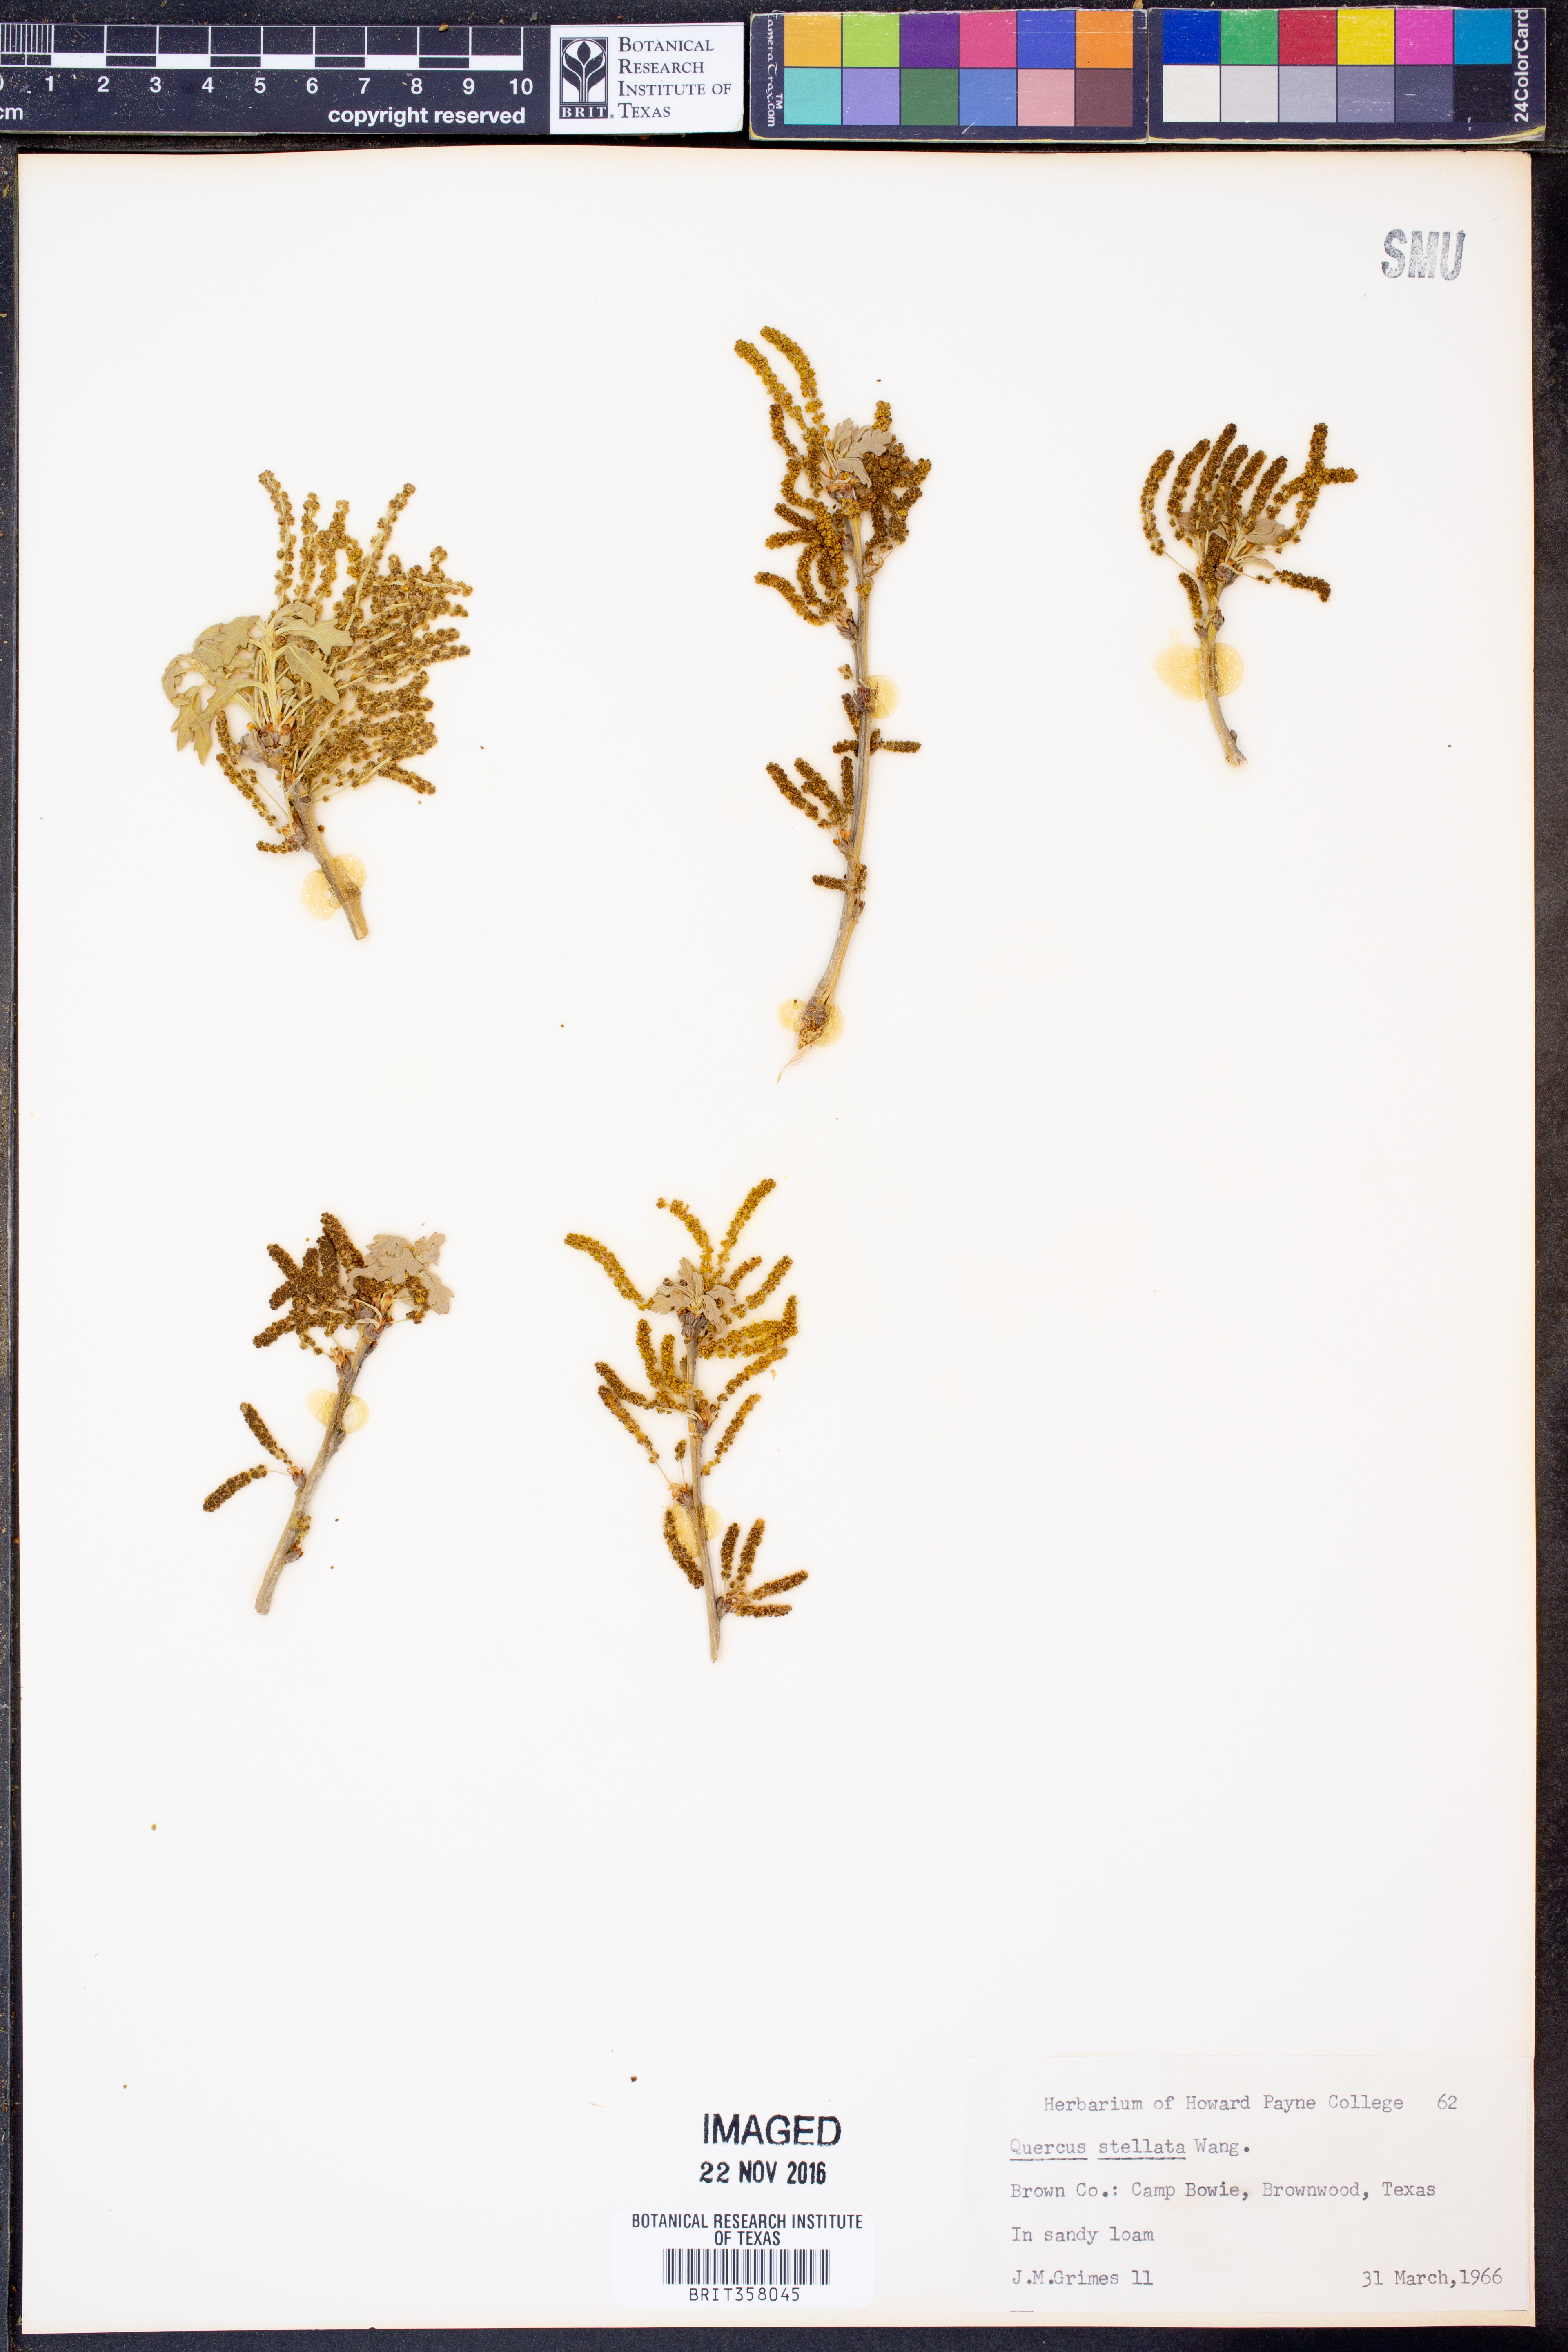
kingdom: Plantae
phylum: Tracheophyta
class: Magnoliopsida
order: Fagales
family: Fagaceae
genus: Quercus
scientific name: Quercus stellata
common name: Post oak
